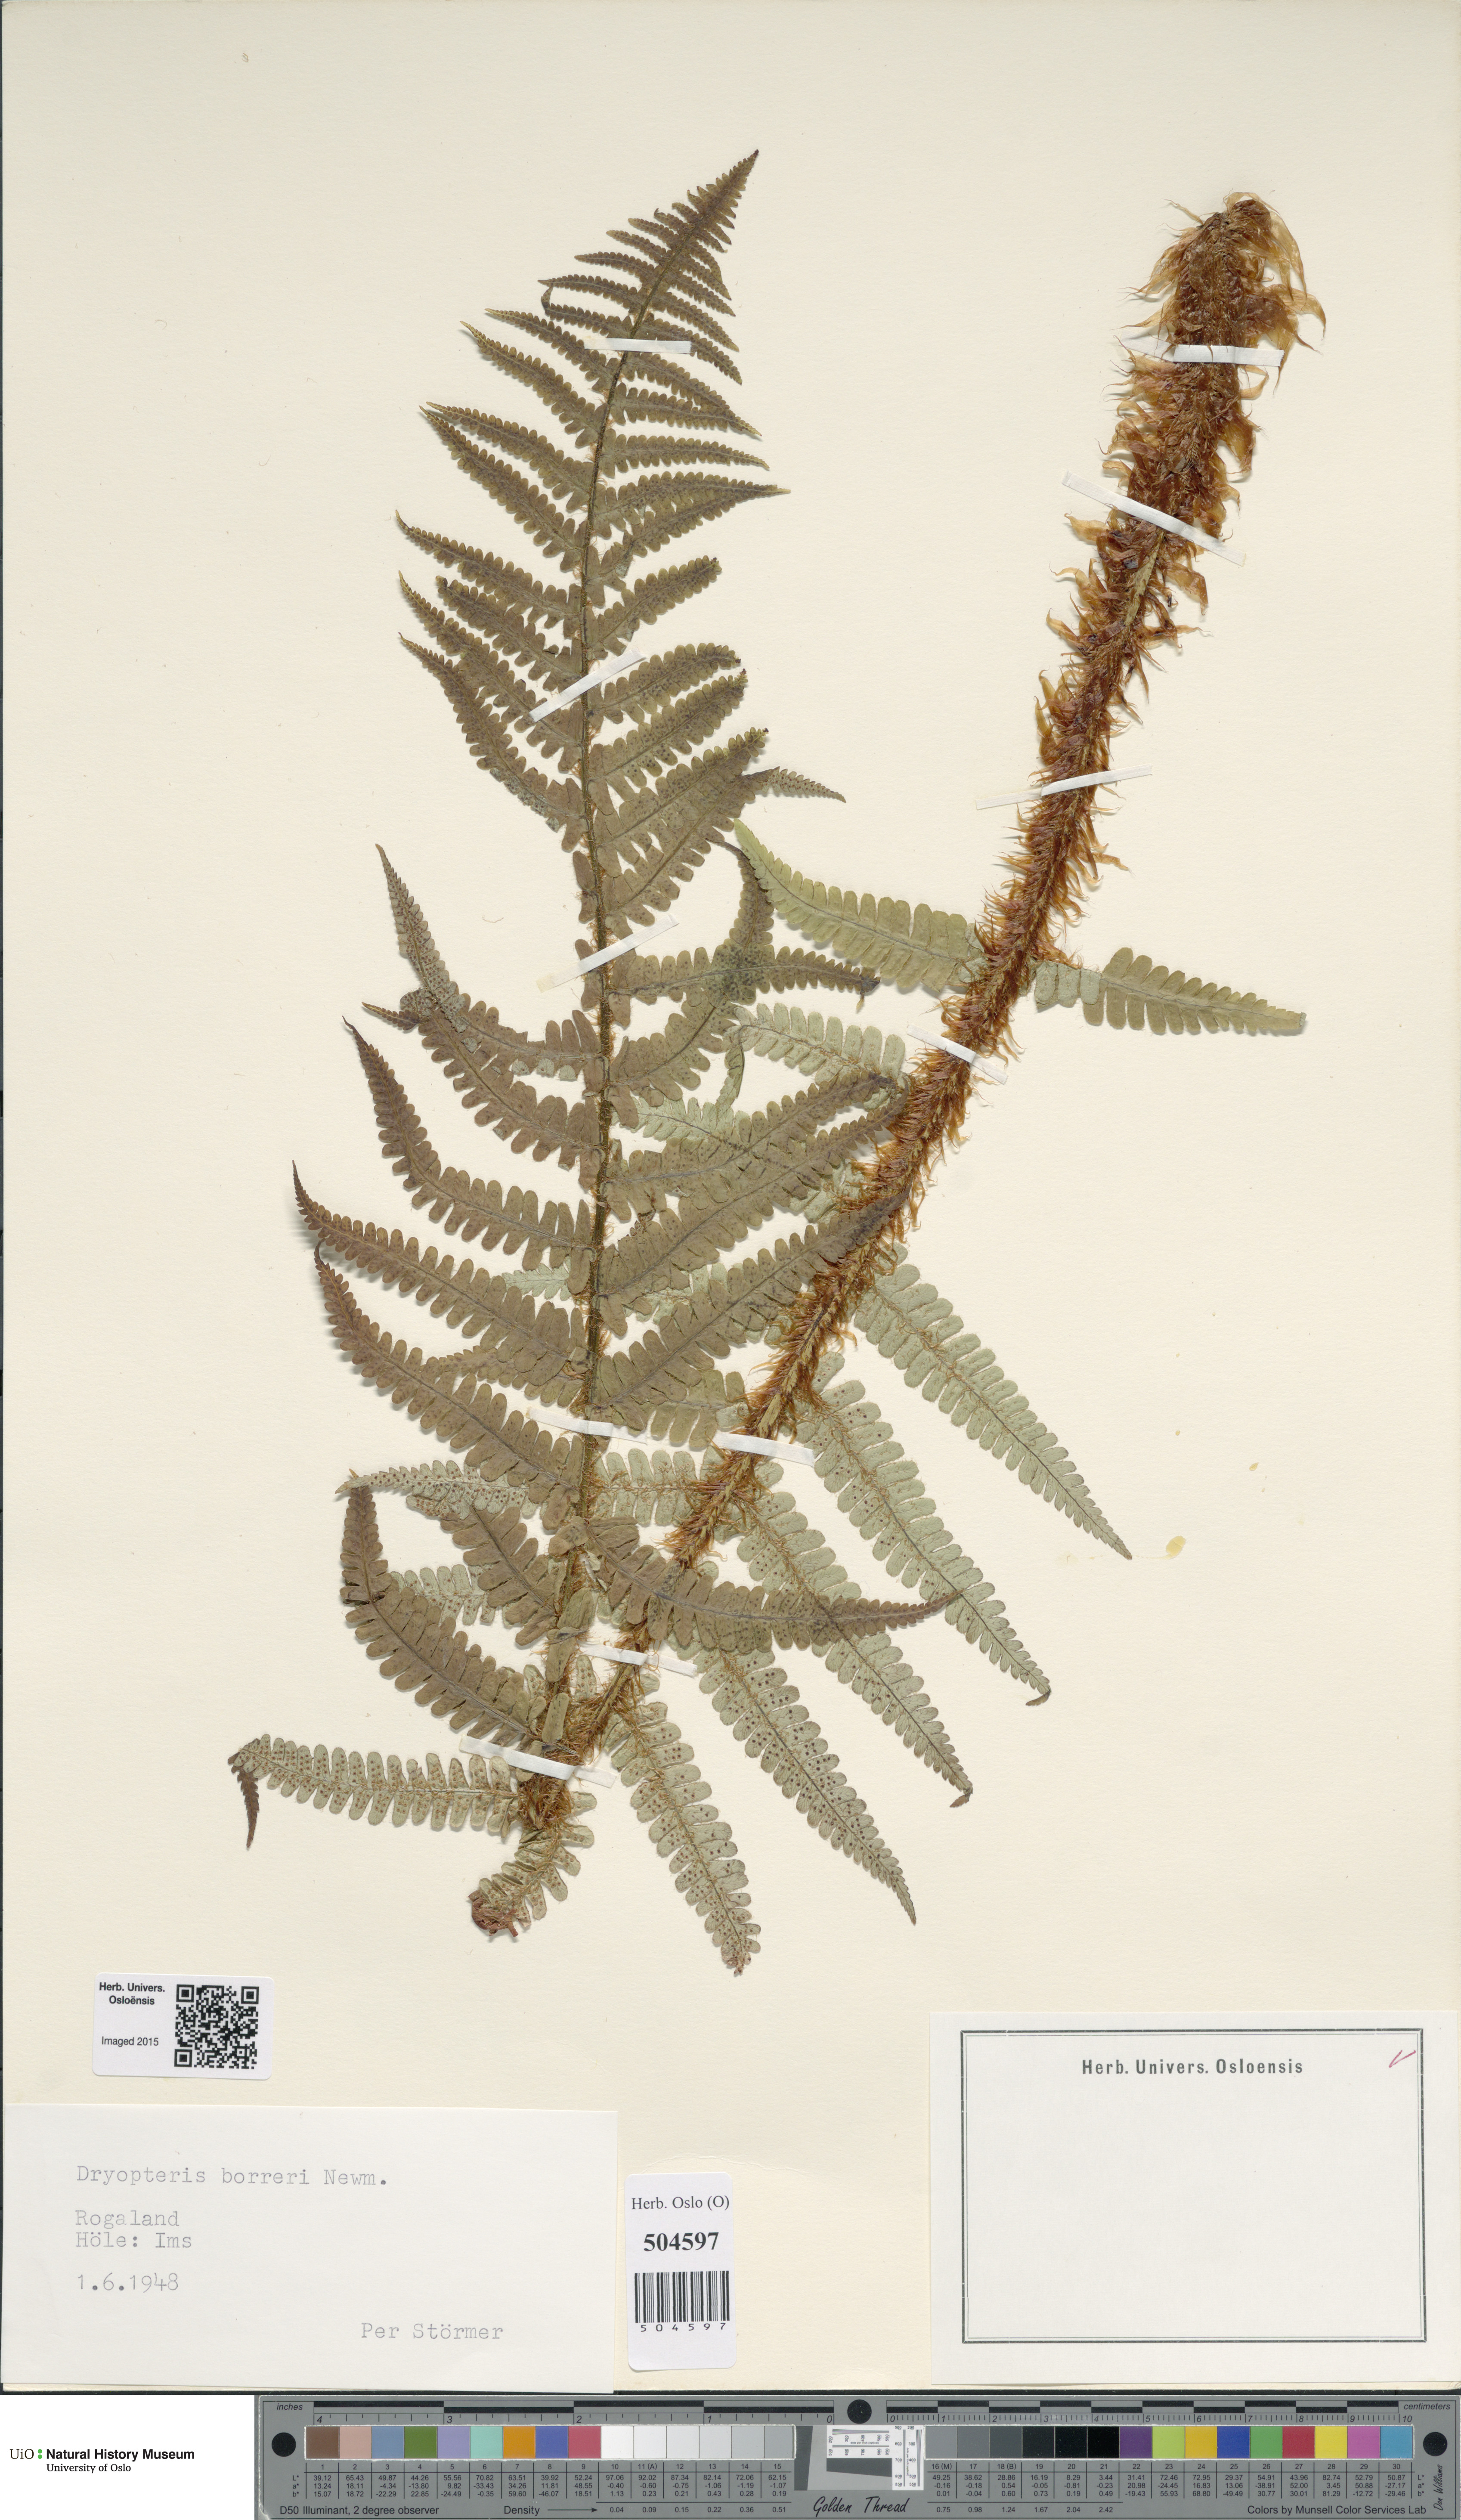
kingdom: Plantae
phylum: Tracheophyta
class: Polypodiopsida
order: Polypodiales
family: Dryopteridaceae
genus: Dryopteris
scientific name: Dryopteris borreri
